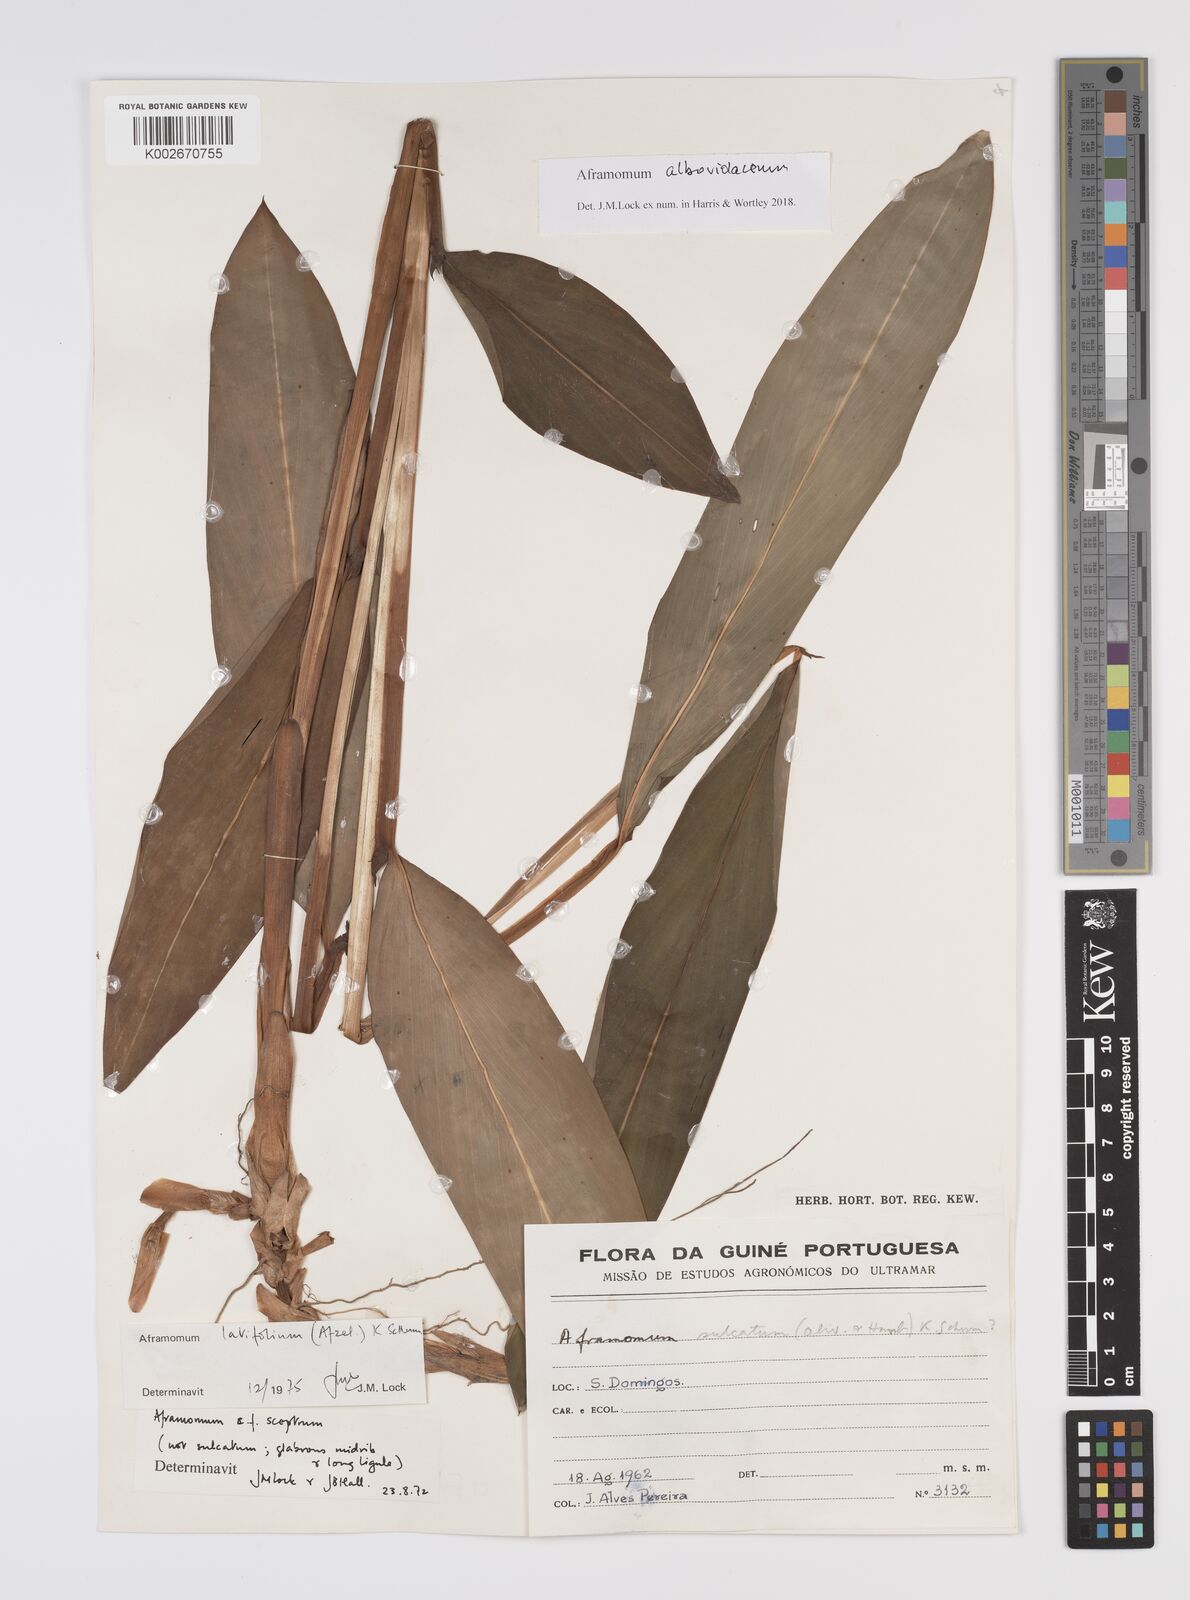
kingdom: Plantae
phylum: Tracheophyta
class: Liliopsida
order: Zingiberales
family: Zingiberaceae
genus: Aframomum
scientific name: Aframomum alboviolaceum
